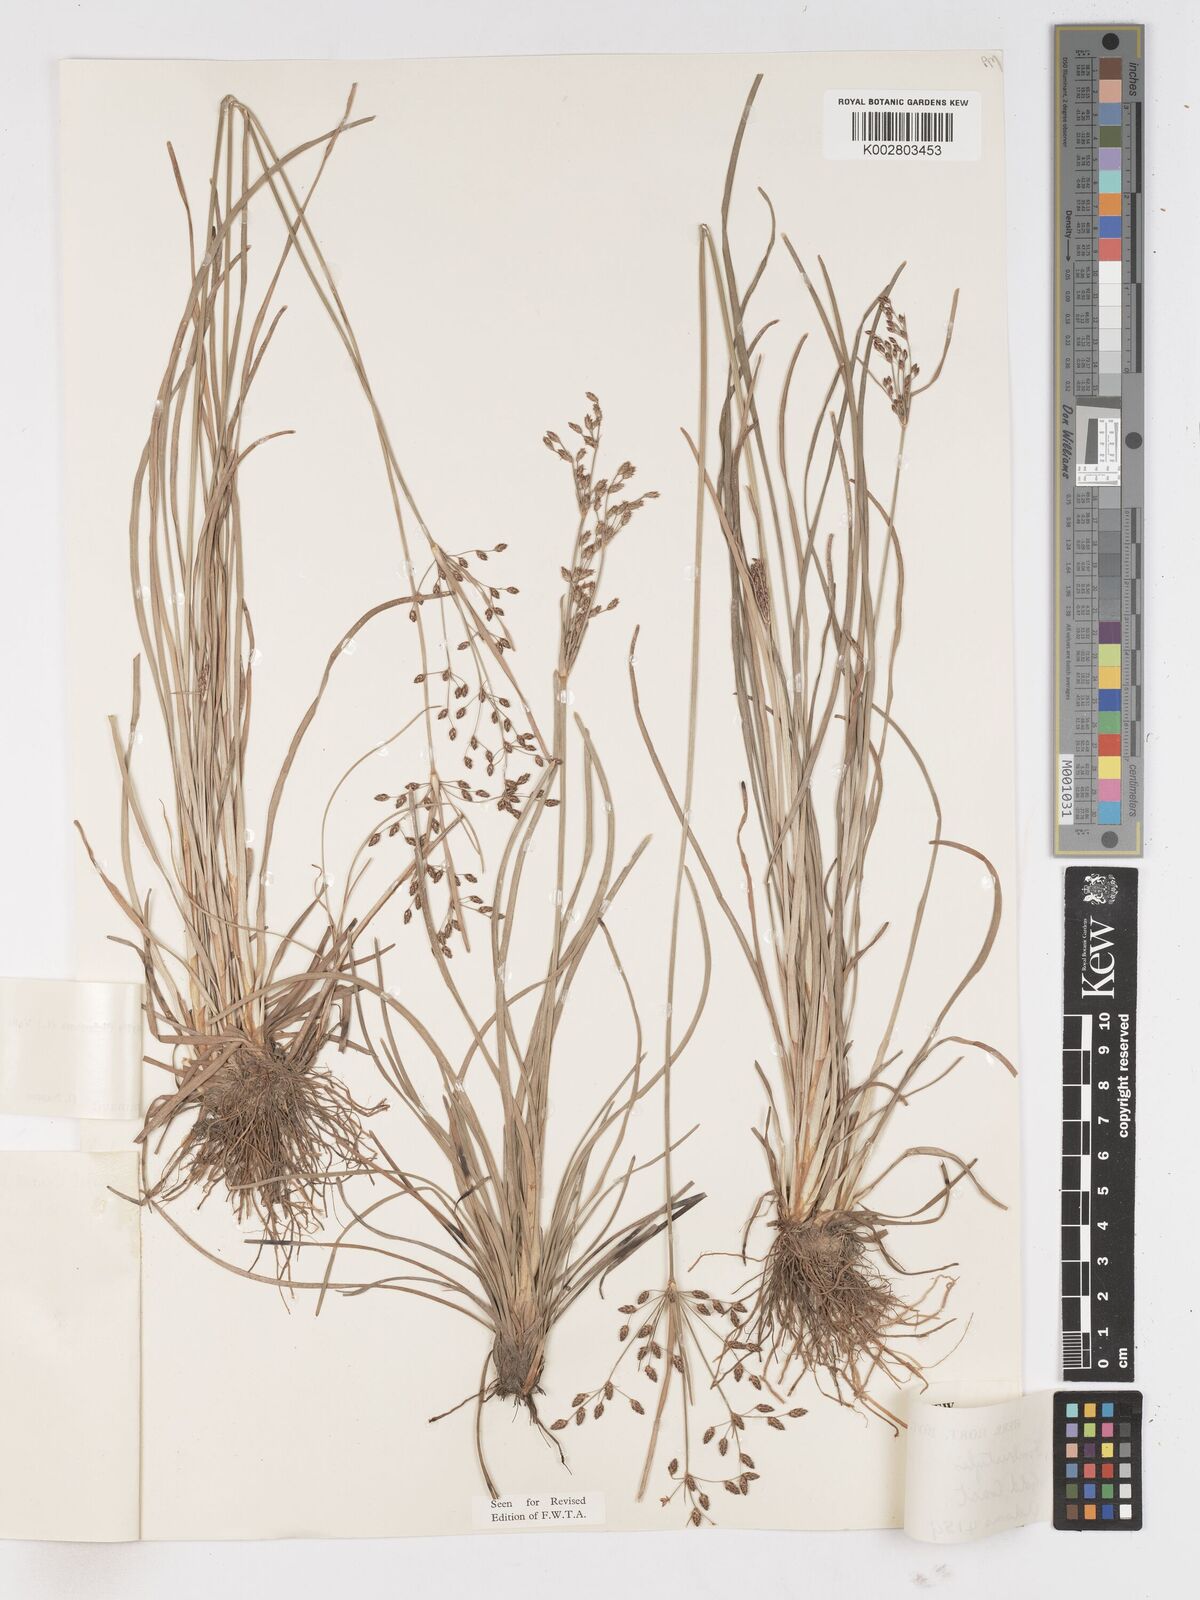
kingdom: Plantae
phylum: Tracheophyta
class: Liliopsida
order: Poales
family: Cyperaceae
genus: Fimbristylis
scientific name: Fimbristylis dichotoma
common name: Forked fimbry
